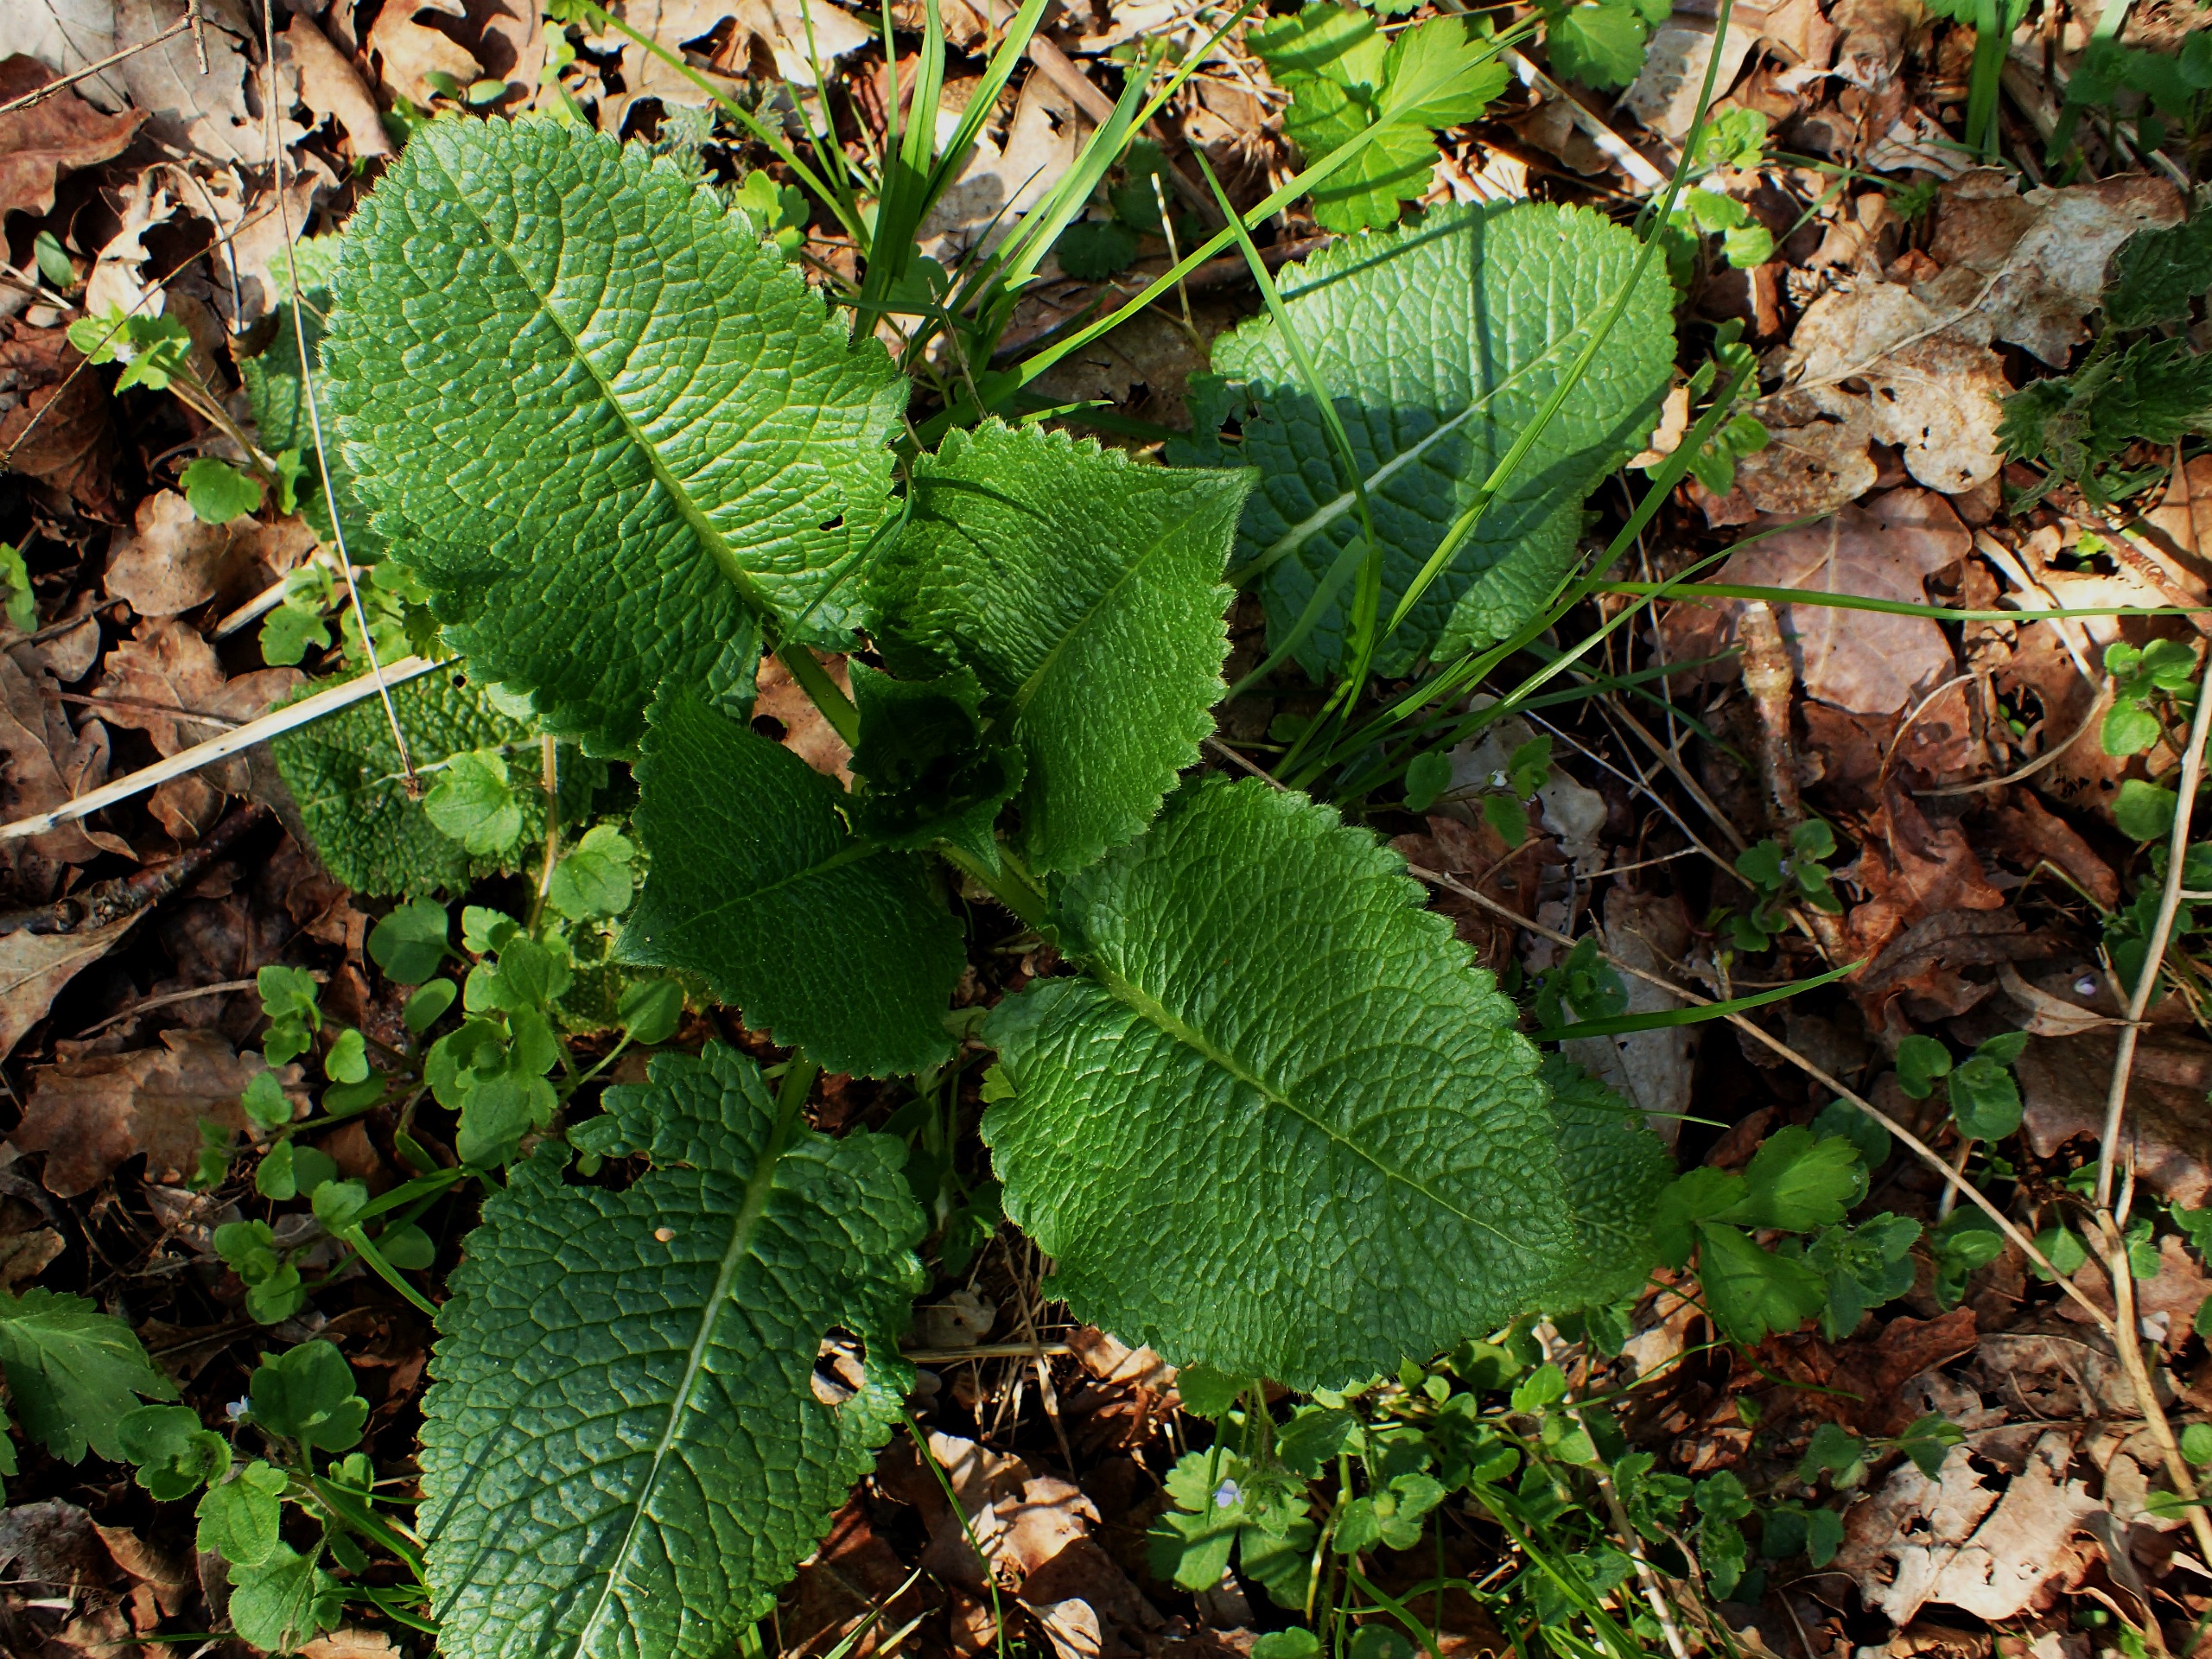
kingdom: Plantae
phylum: Tracheophyta
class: Magnoliopsida
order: Dipsacales
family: Caprifoliaceae
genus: Dipsacus
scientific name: Dipsacus strigosus
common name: Pindsvin-kartebolle
